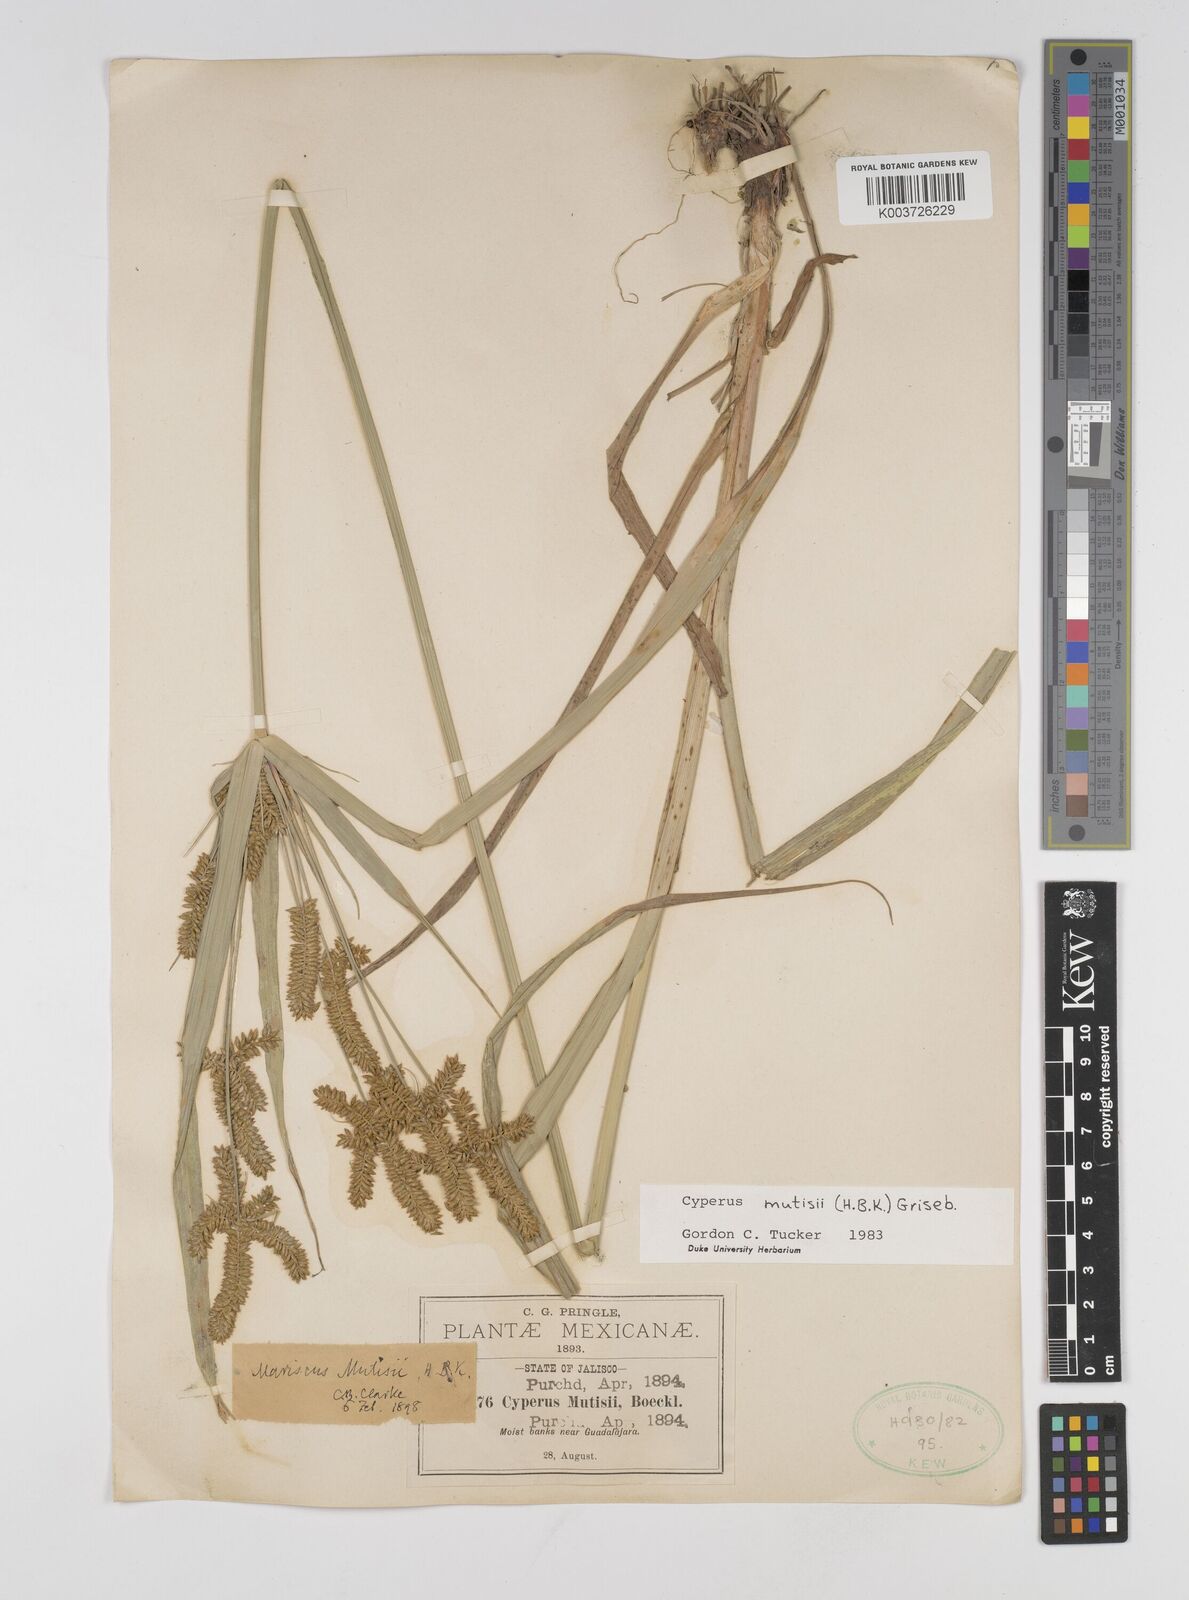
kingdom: Plantae
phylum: Tracheophyta
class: Liliopsida
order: Poales
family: Cyperaceae
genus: Cyperus
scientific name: Cyperus mutisii
